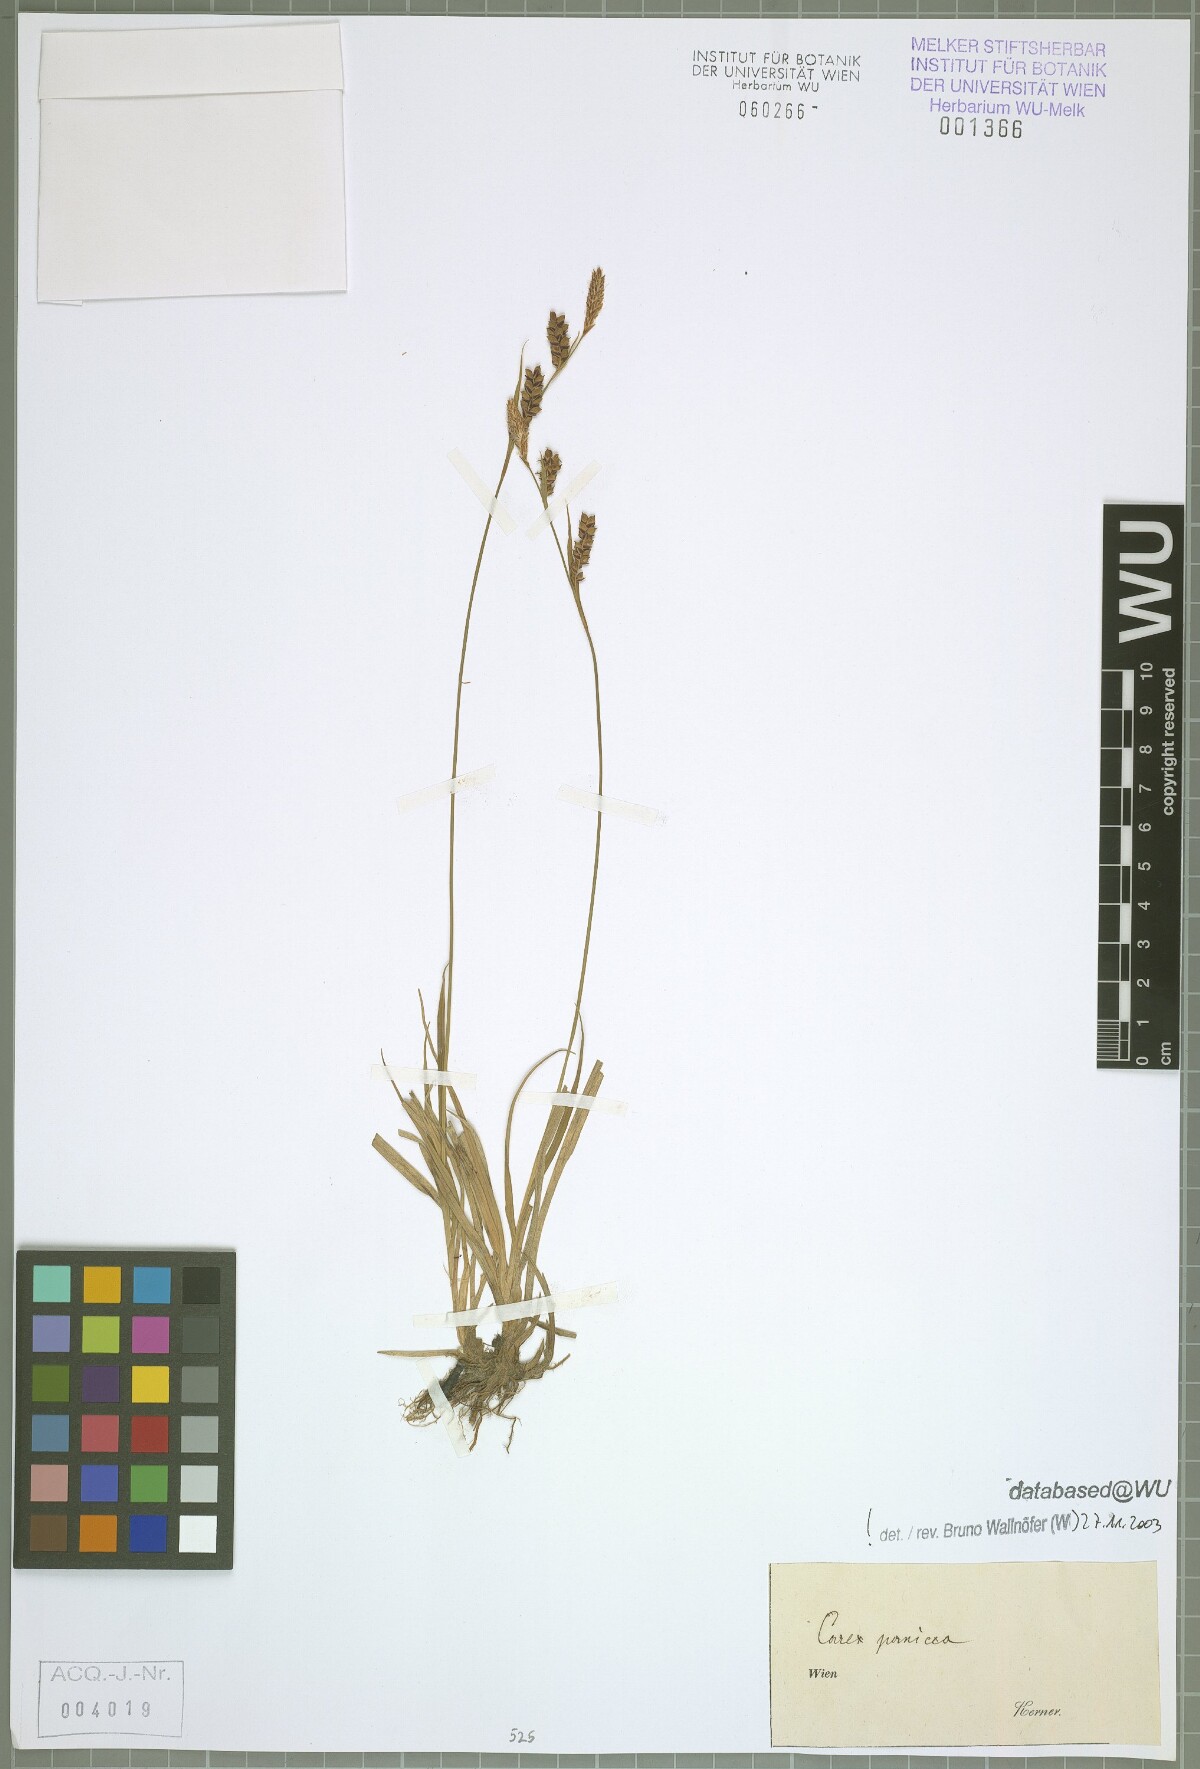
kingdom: Plantae
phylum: Tracheophyta
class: Liliopsida
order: Poales
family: Cyperaceae
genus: Carex
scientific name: Carex panicea
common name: Carnation sedge
